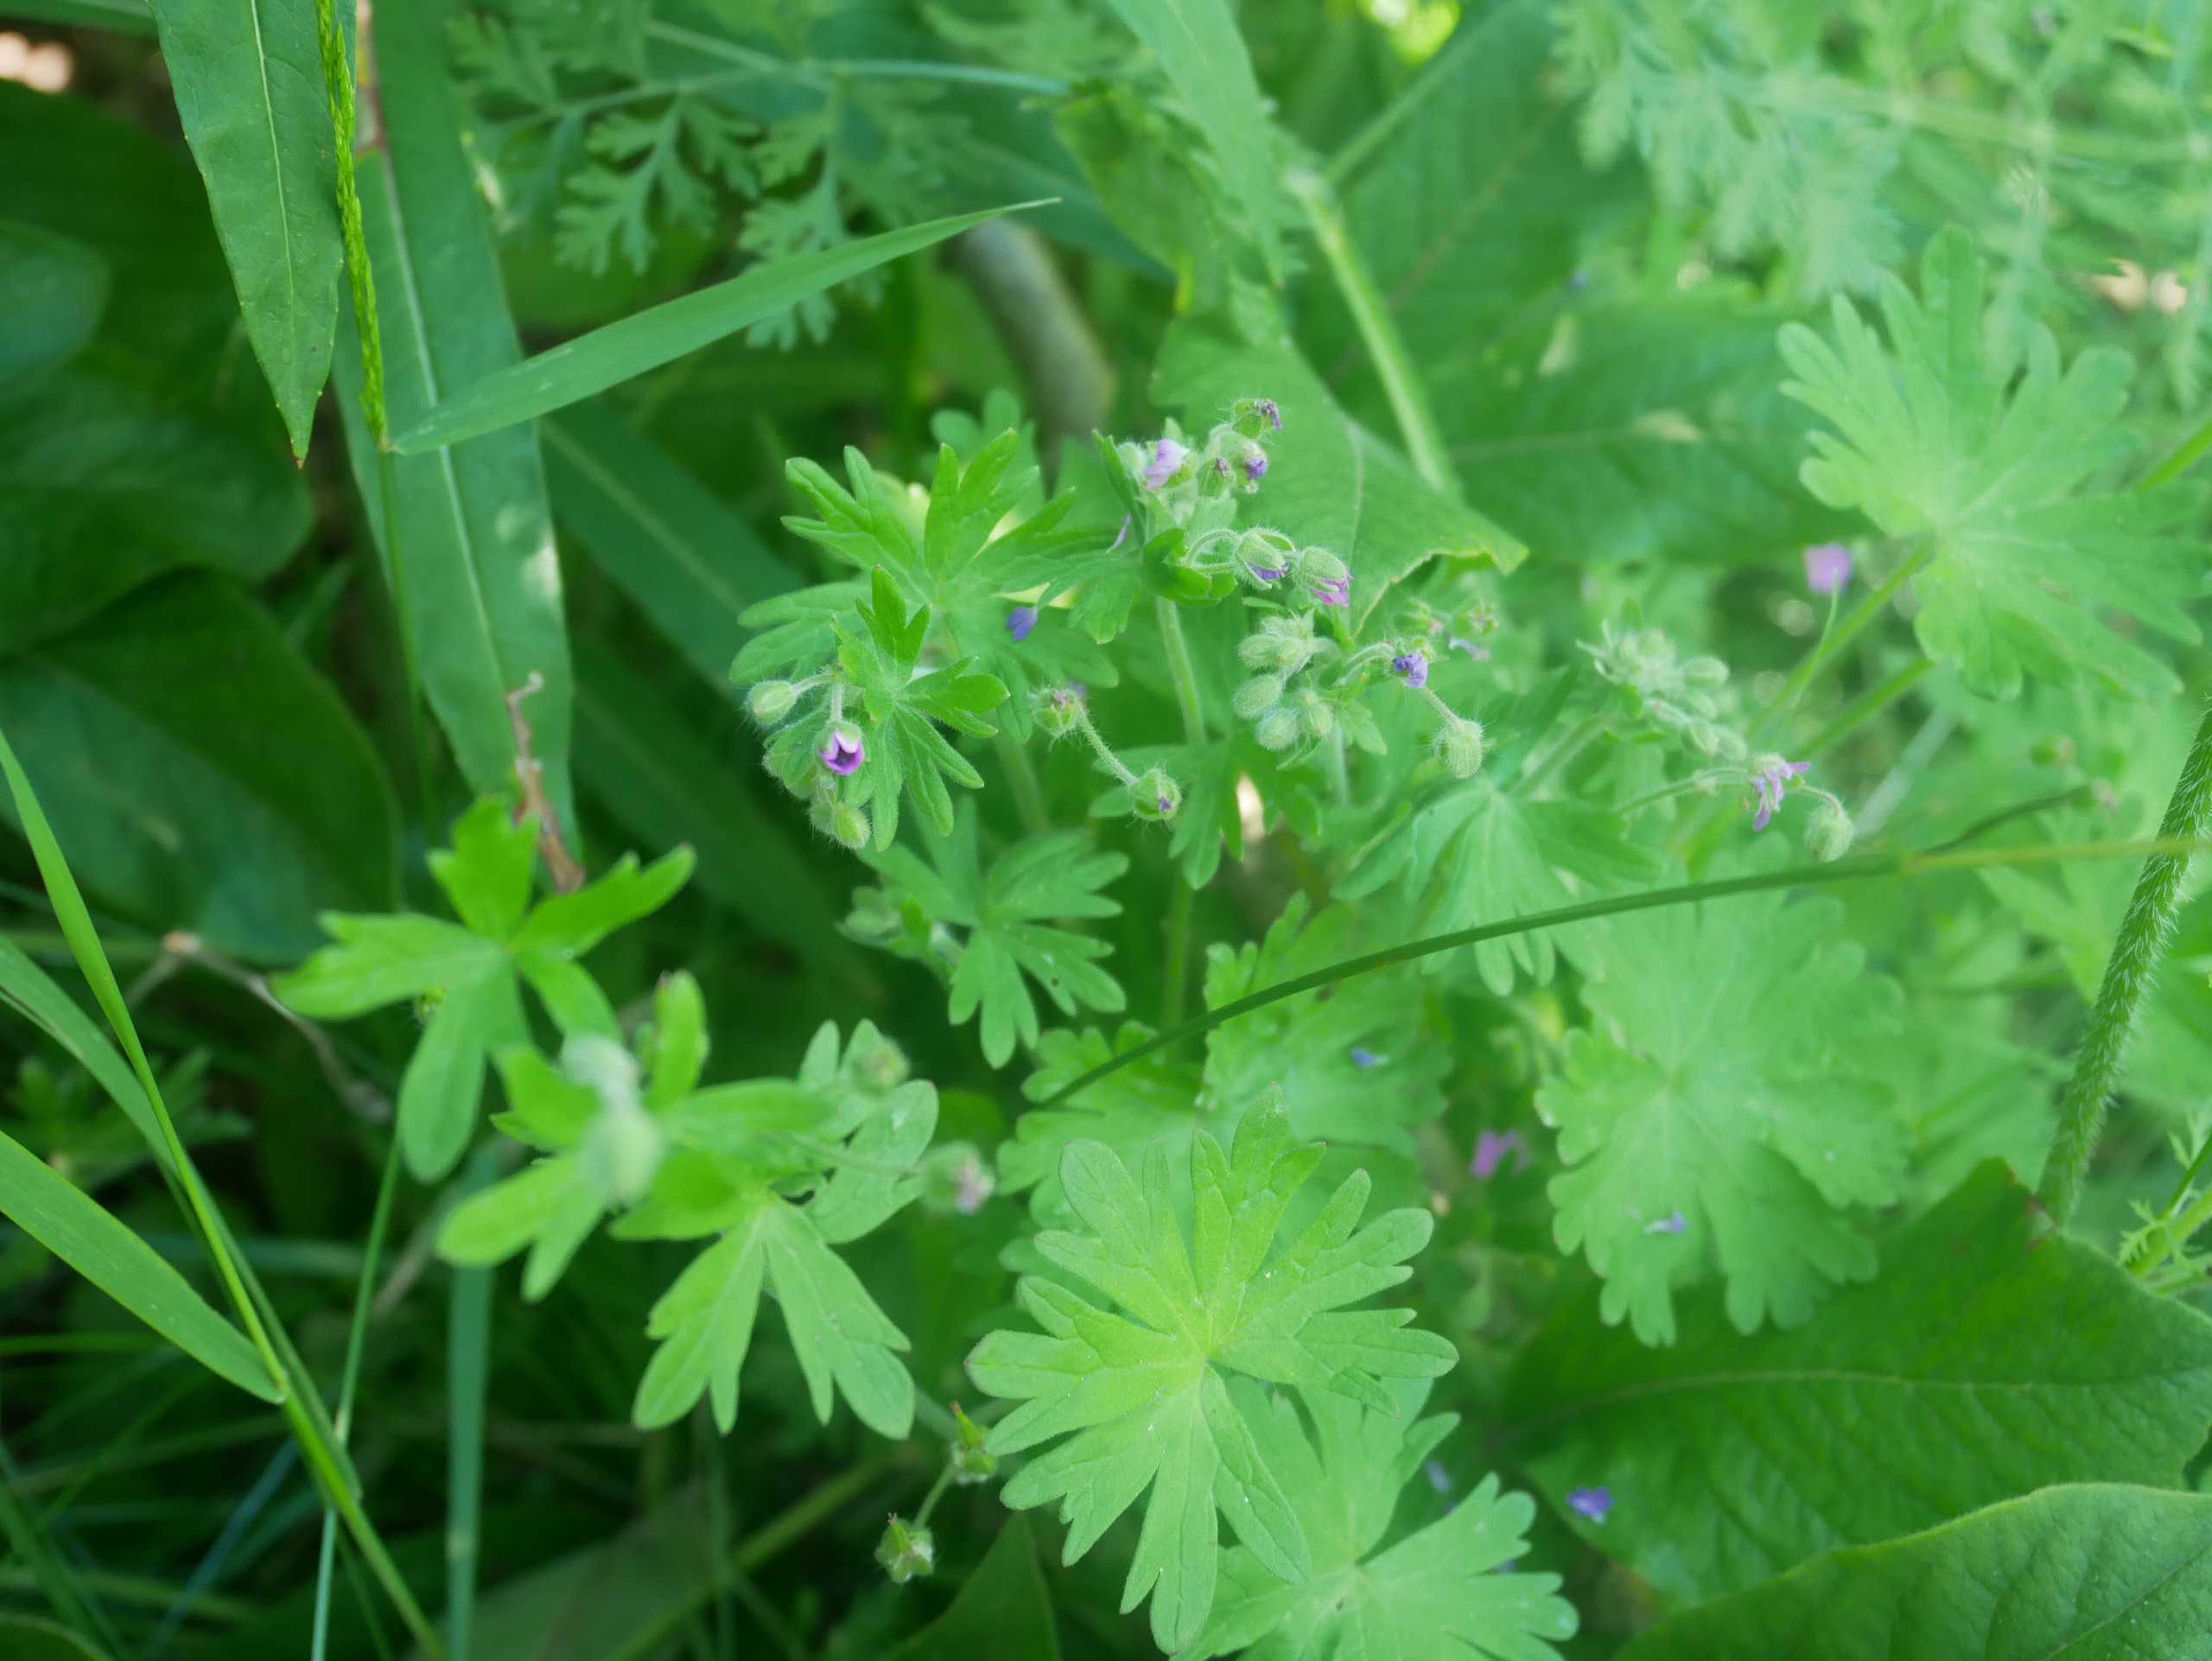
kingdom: Plantae
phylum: Tracheophyta
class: Magnoliopsida
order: Geraniales
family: Geraniaceae
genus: Geranium
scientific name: Geranium molle
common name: Blød storkenæb
